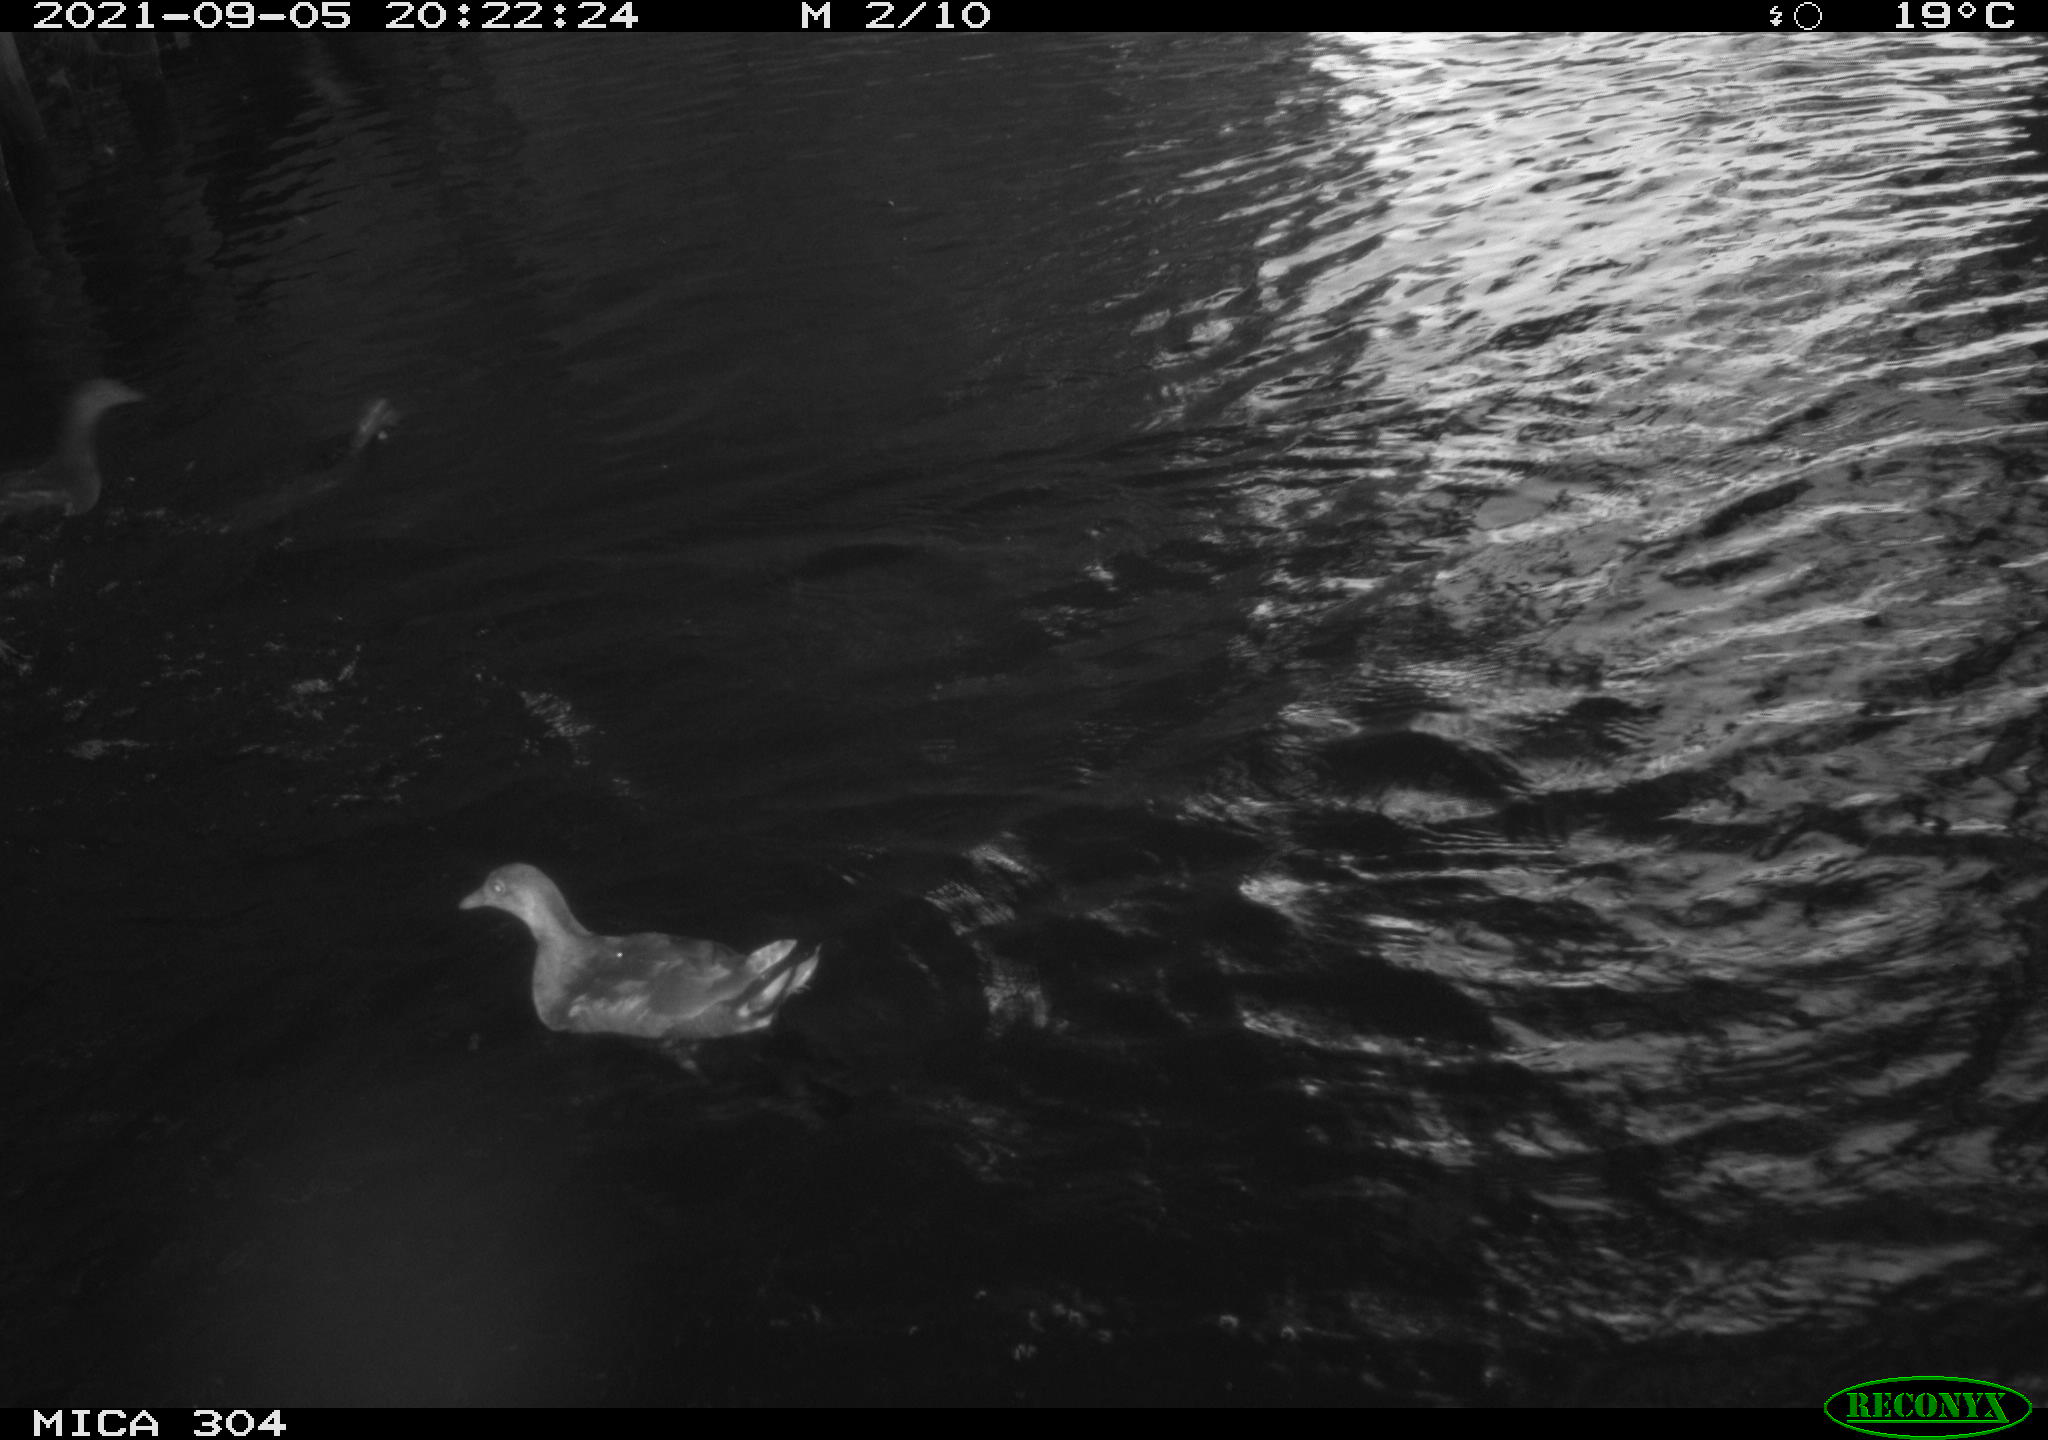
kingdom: Animalia
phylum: Chordata
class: Aves
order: Anseriformes
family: Anatidae
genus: Mareca
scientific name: Mareca strepera
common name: Gadwall
